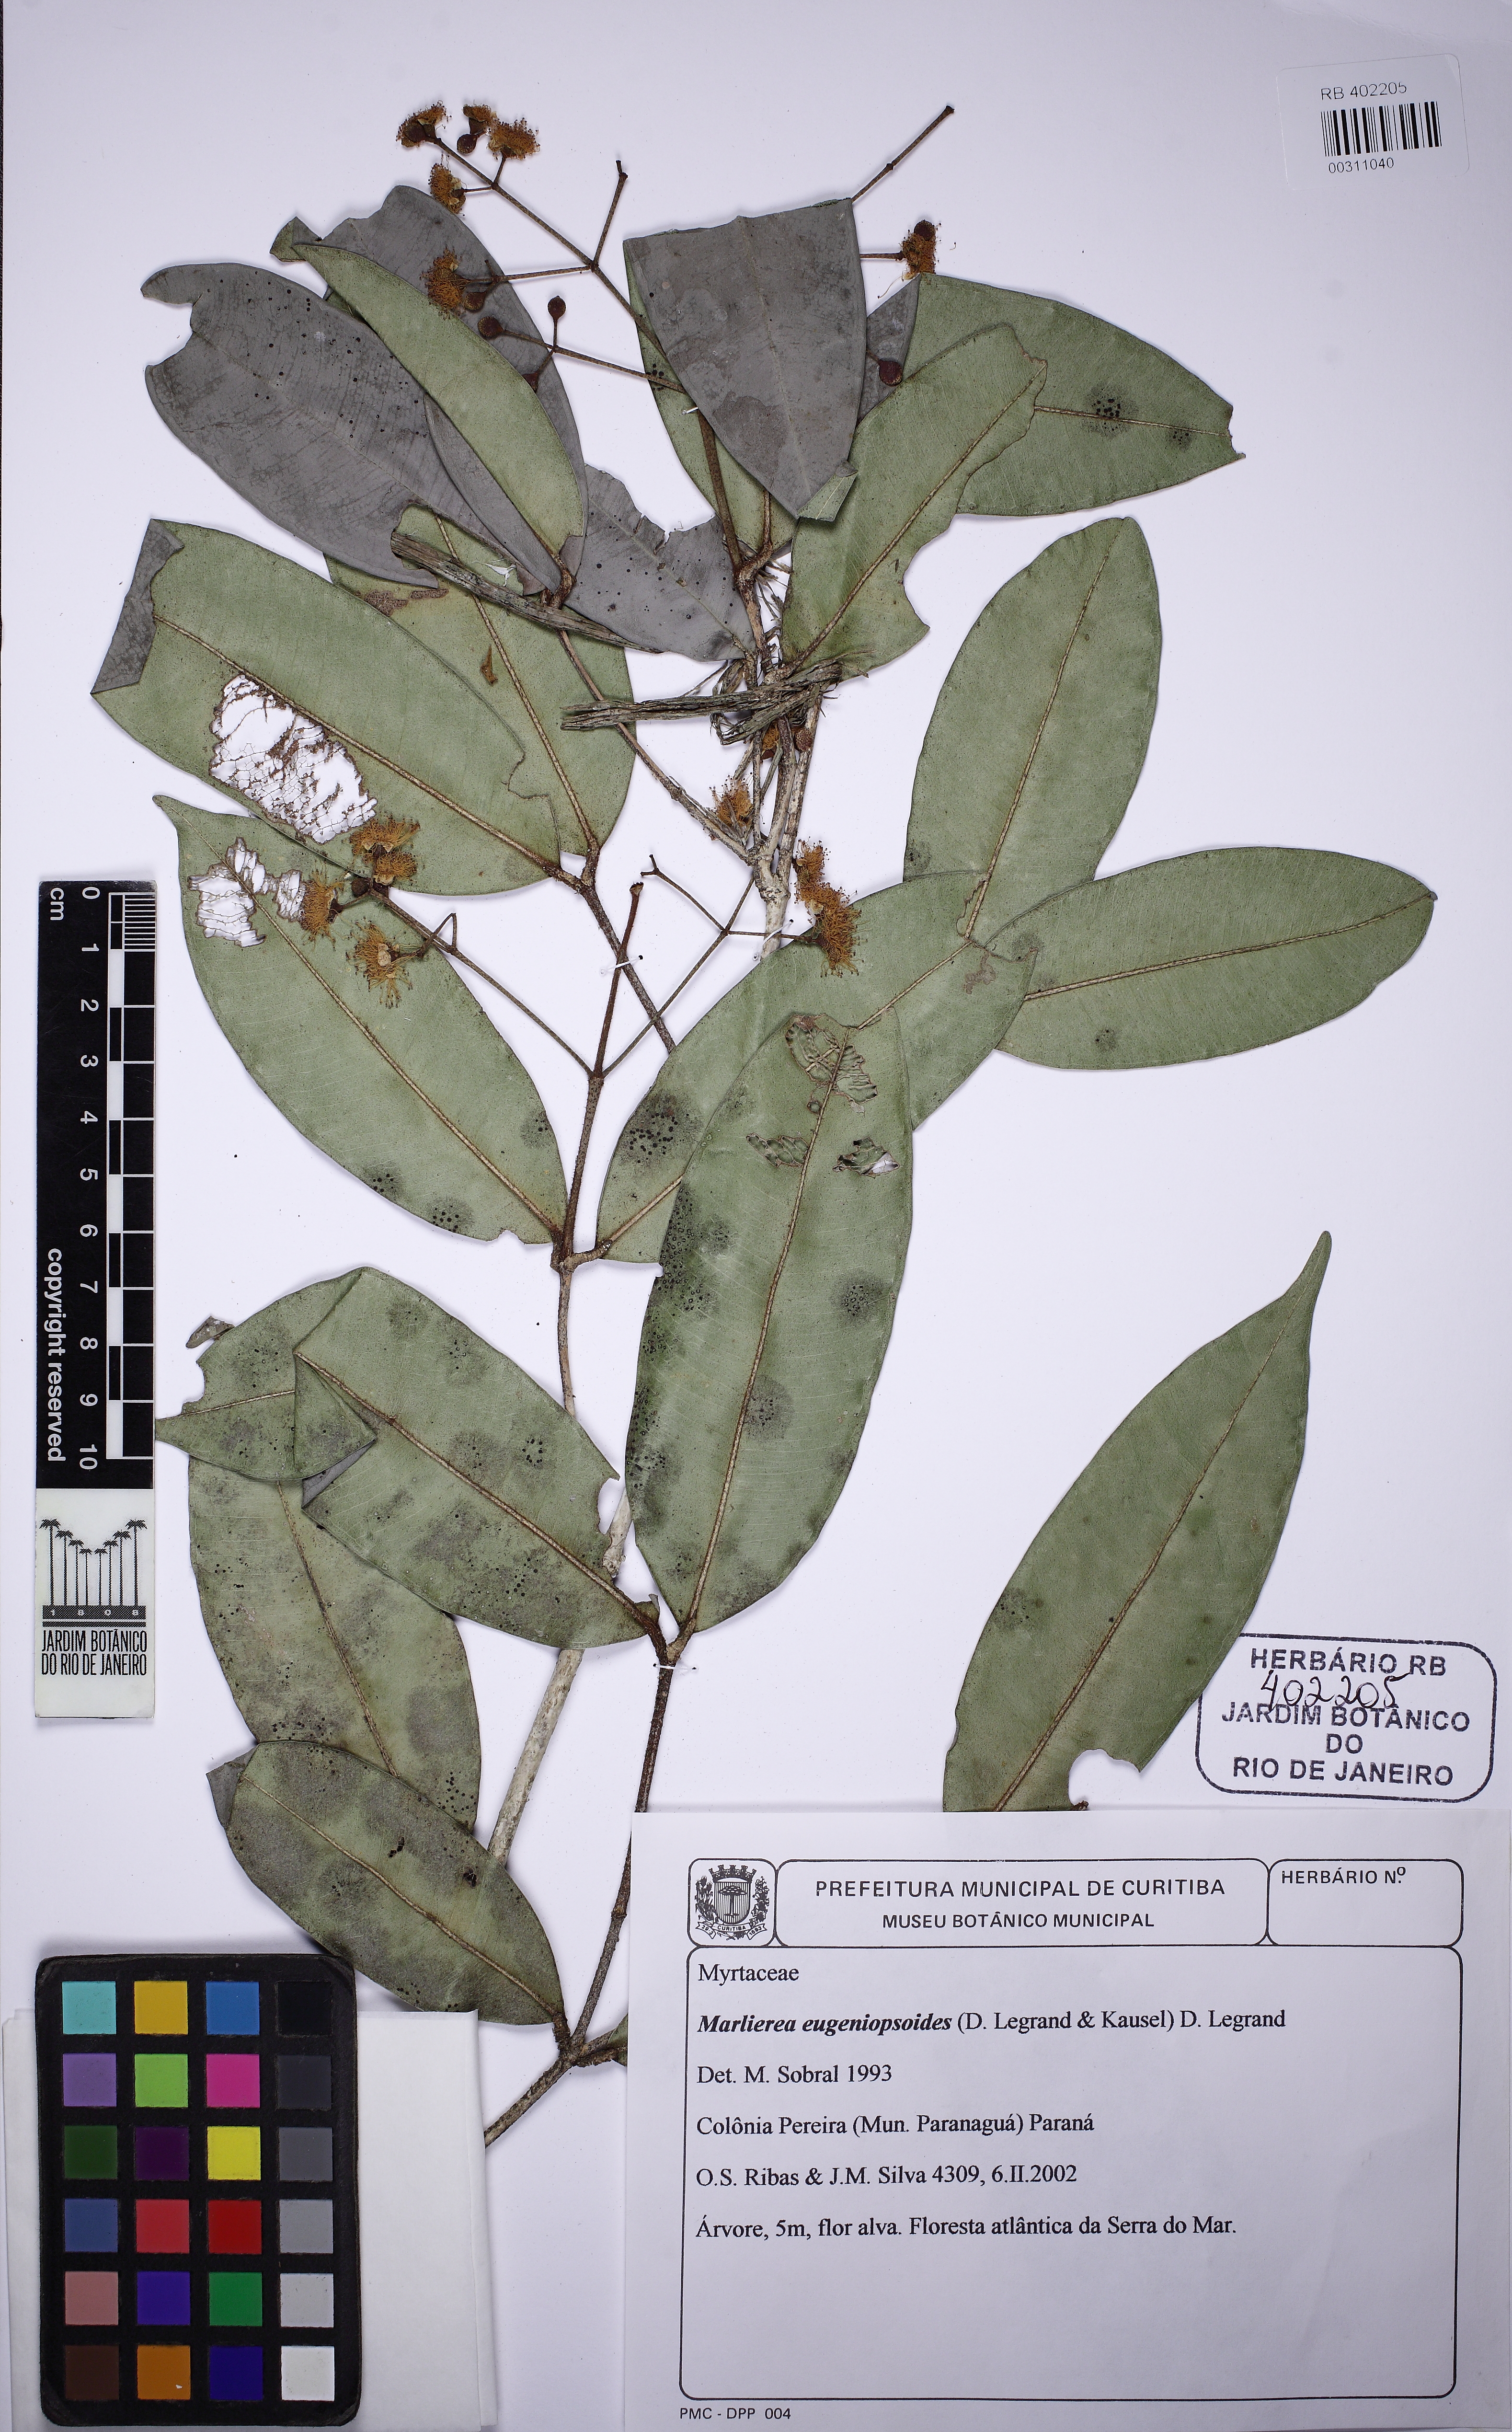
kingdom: Plantae
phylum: Tracheophyta
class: Magnoliopsida
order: Myrtales
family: Myrtaceae
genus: Myrcia
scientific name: Myrcia eugeniopsoides
